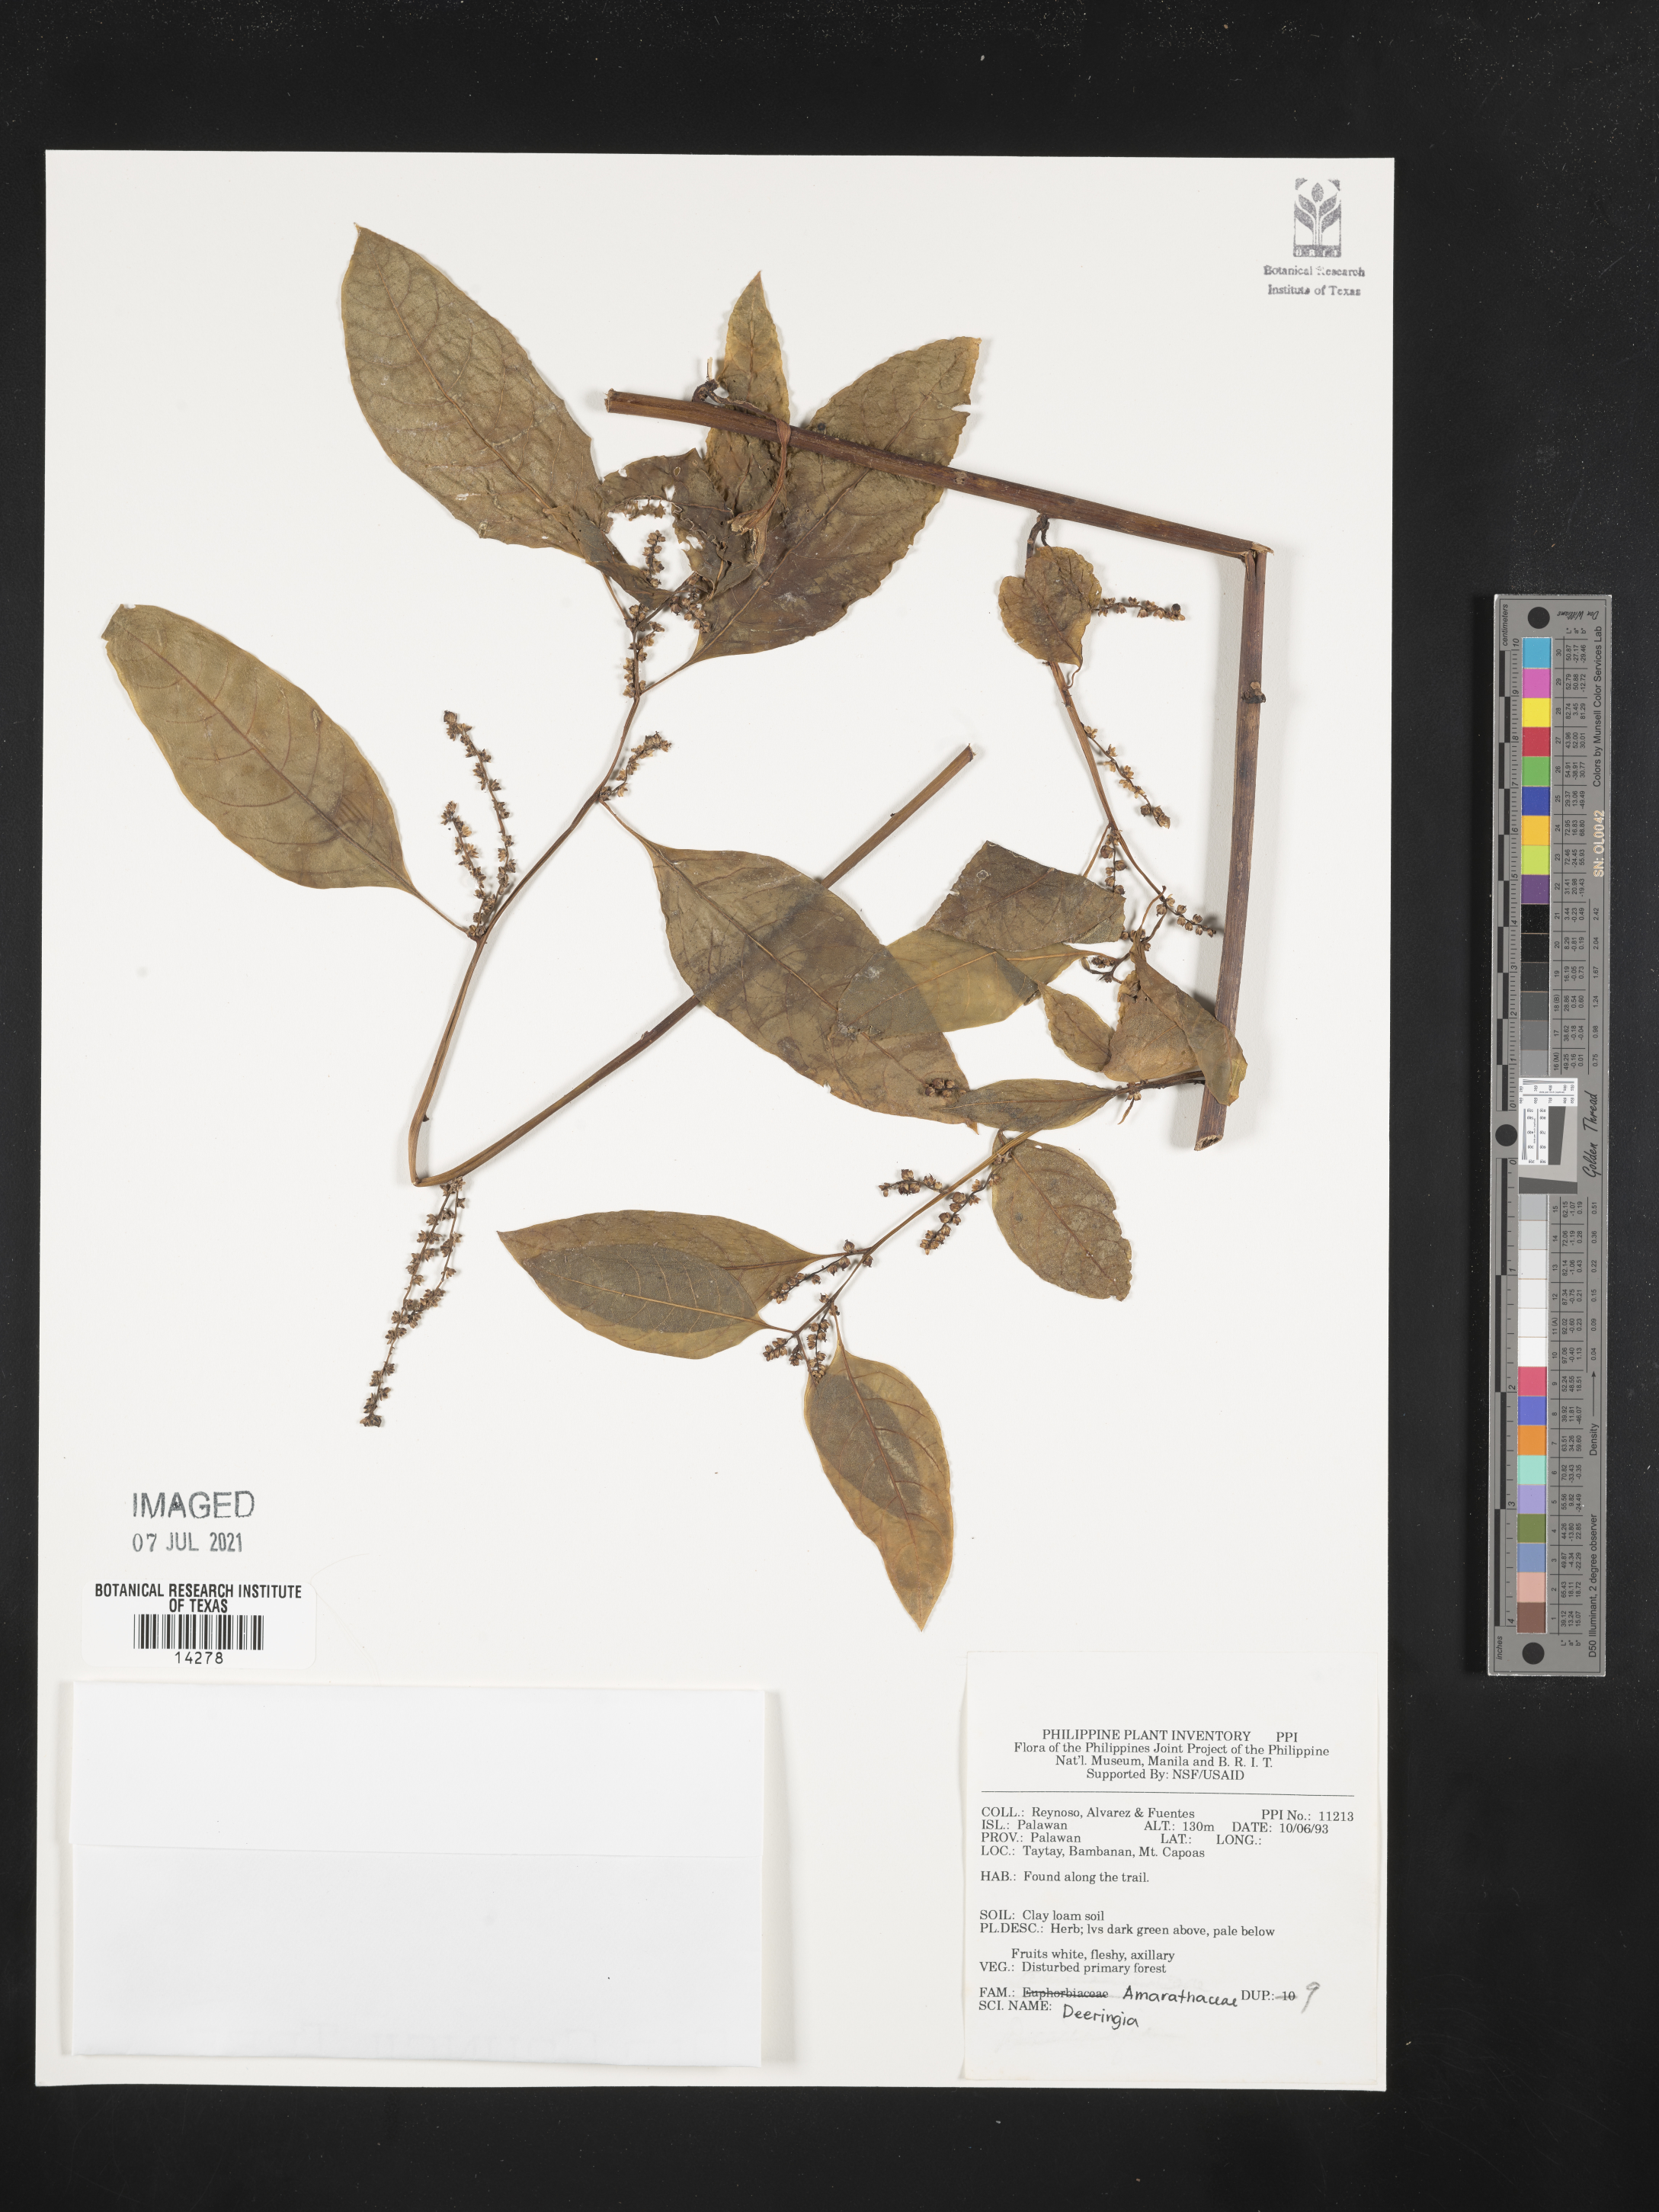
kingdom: Plantae
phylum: Tracheophyta
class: Magnoliopsida
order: Caryophyllales
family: Amaranthaceae
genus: Deeringia
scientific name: Deeringia
